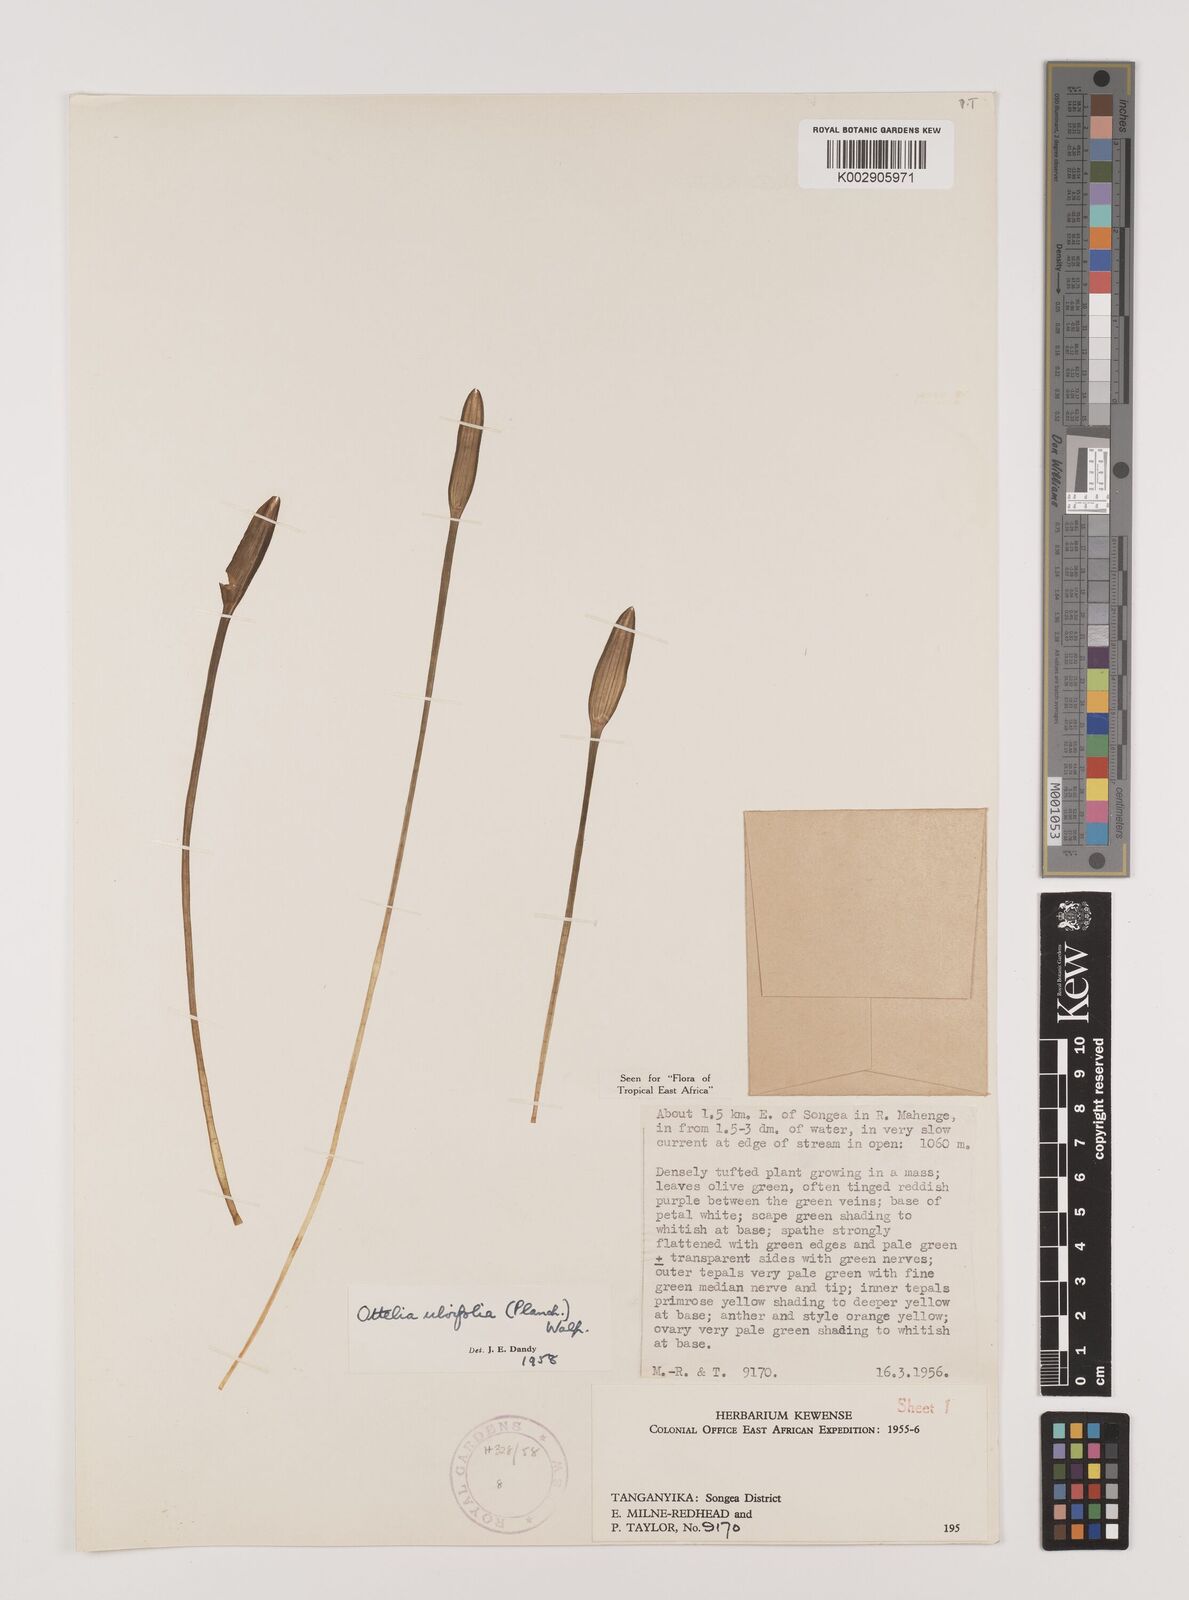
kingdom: Plantae
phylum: Tracheophyta
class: Liliopsida
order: Alismatales
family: Hydrocharitaceae
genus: Ottelia
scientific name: Ottelia ulvifolia
